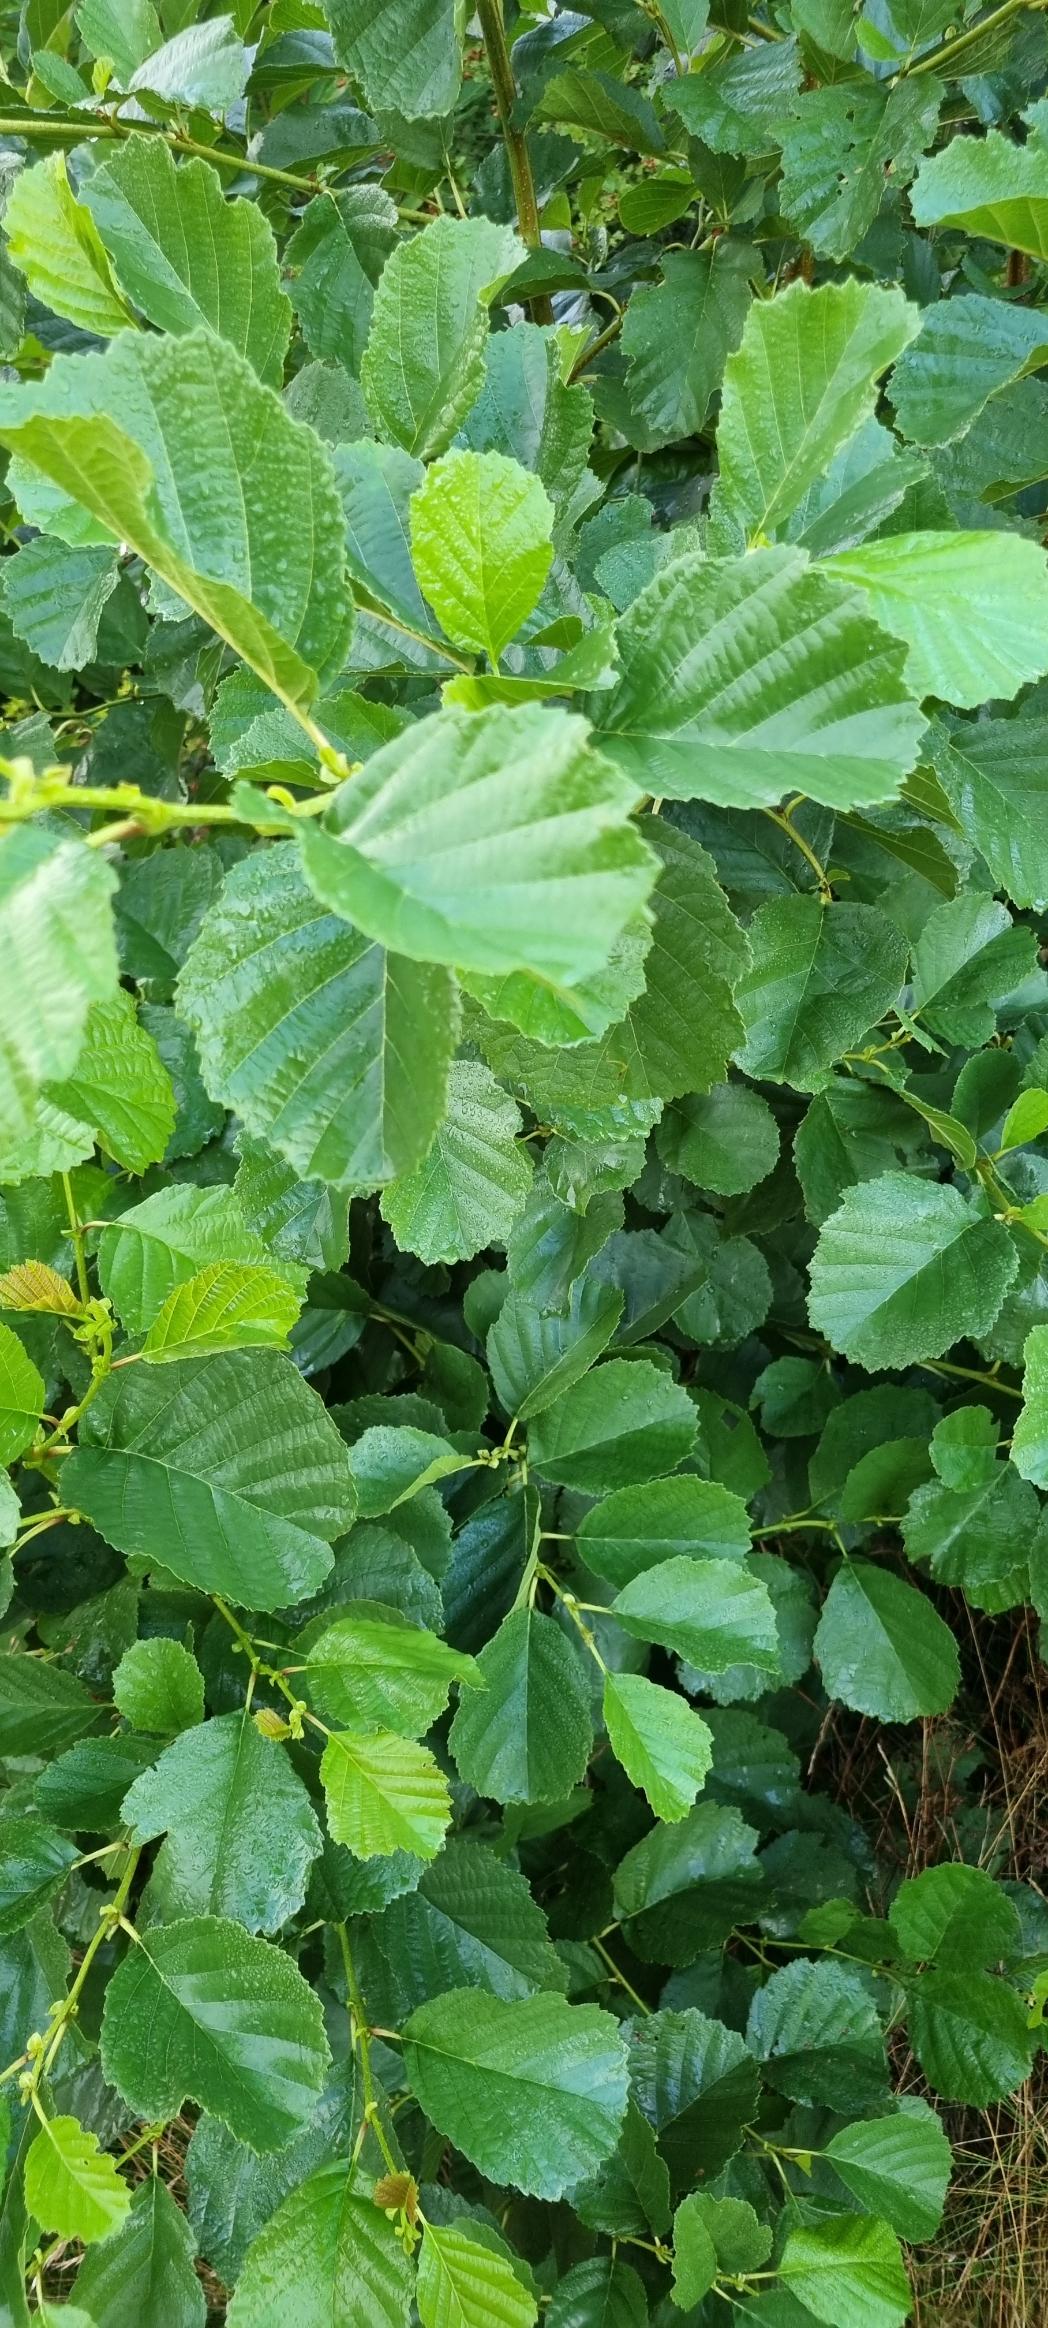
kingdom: Plantae
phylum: Tracheophyta
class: Magnoliopsida
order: Fagales
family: Betulaceae
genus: Alnus
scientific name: Alnus glutinosa
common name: Rød-el
